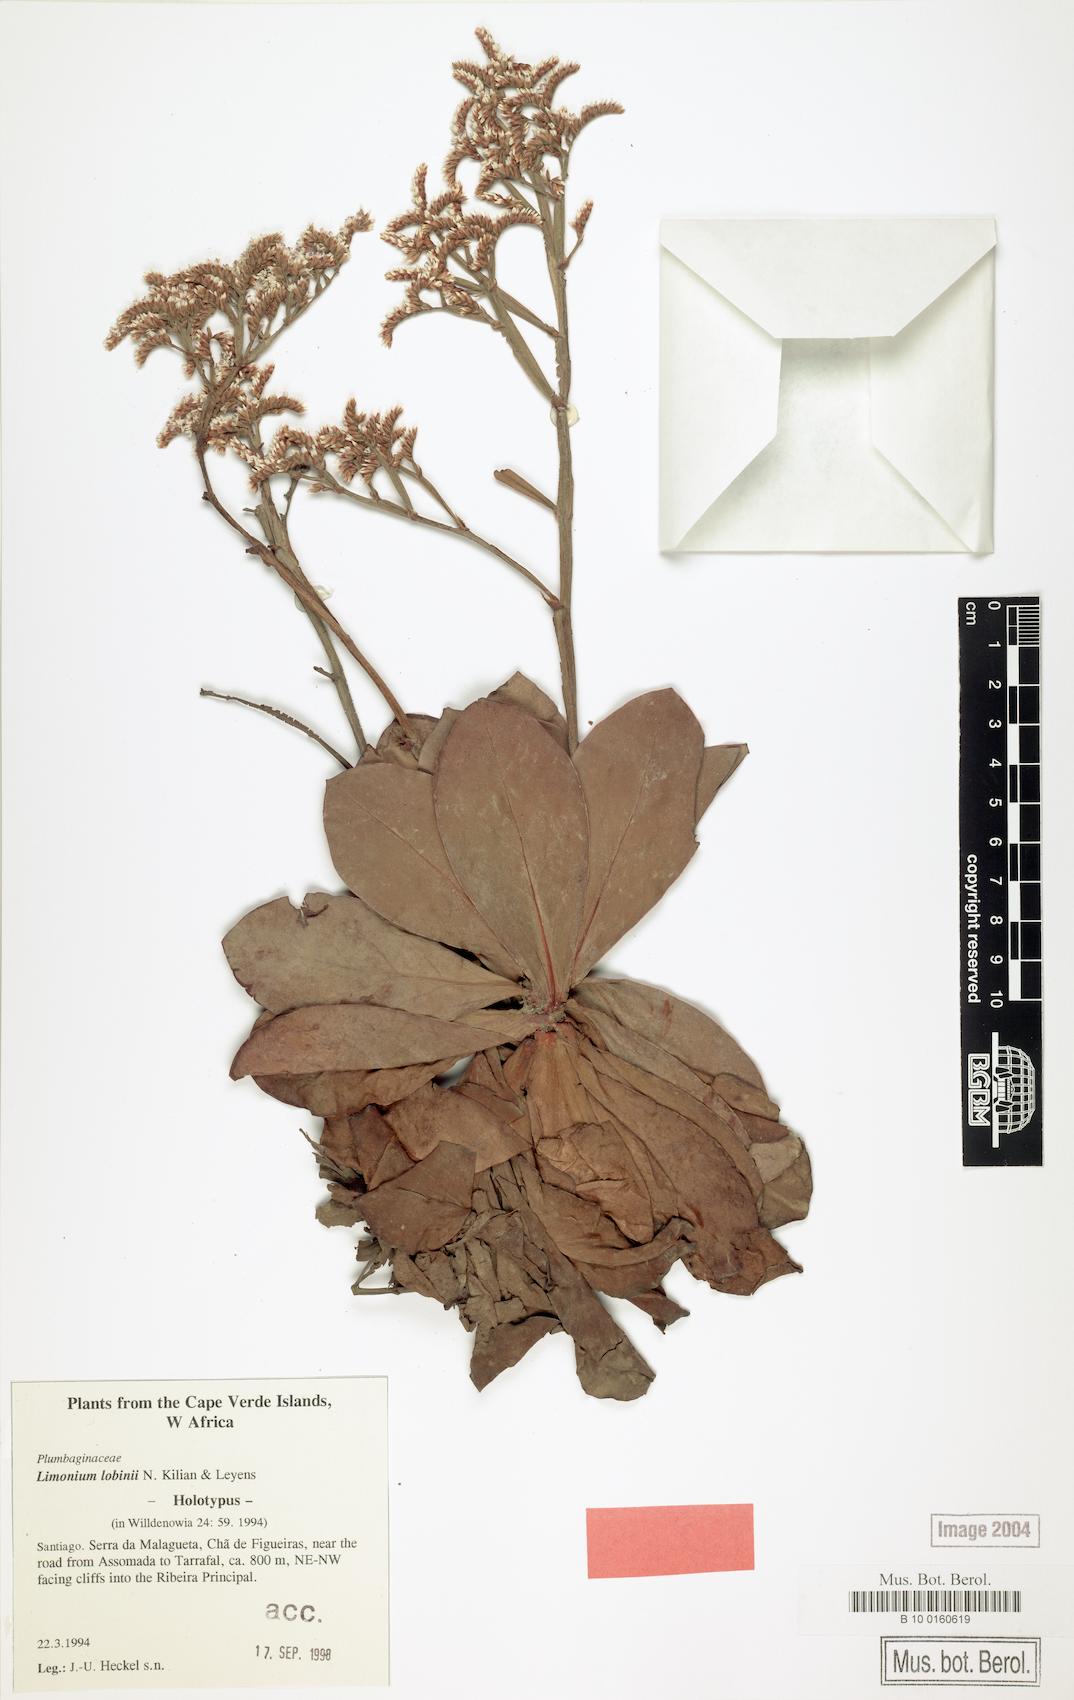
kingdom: Plantae
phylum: Tracheophyta
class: Magnoliopsida
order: Caryophyllales
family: Plumbaginaceae
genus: Limonium
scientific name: Limonium lobinii
